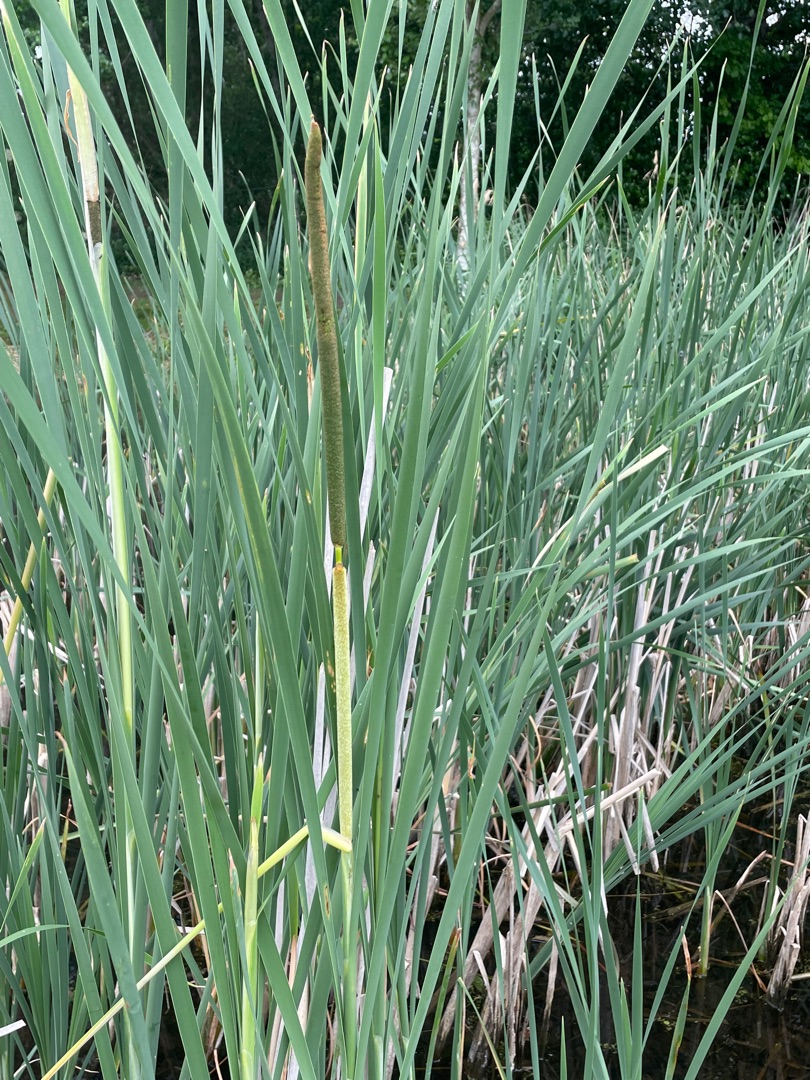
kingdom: Plantae
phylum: Tracheophyta
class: Liliopsida
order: Poales
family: Typhaceae
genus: Typha
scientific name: Typha angustifolia
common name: Smalbladet dunhammer
